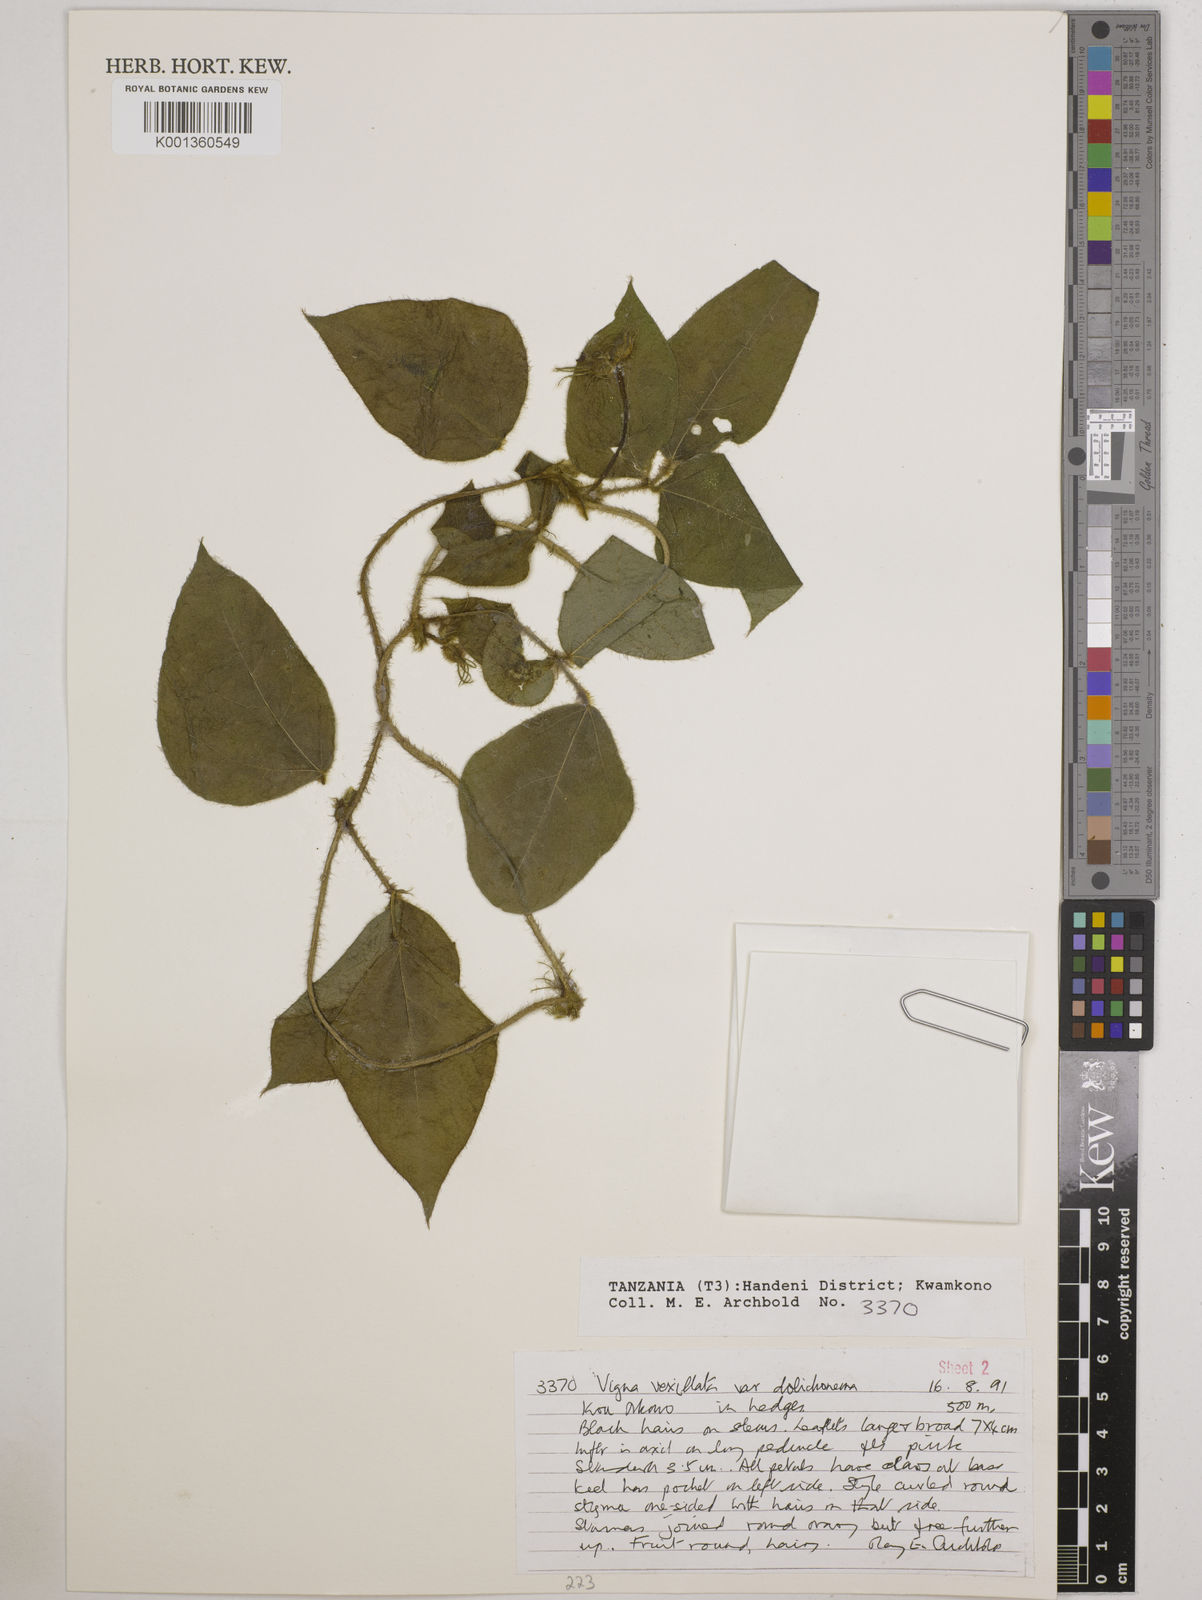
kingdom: Plantae
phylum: Tracheophyta
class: Magnoliopsida
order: Fabales
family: Fabaceae
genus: Vigna
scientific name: Vigna vexillata
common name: Zombi pea
